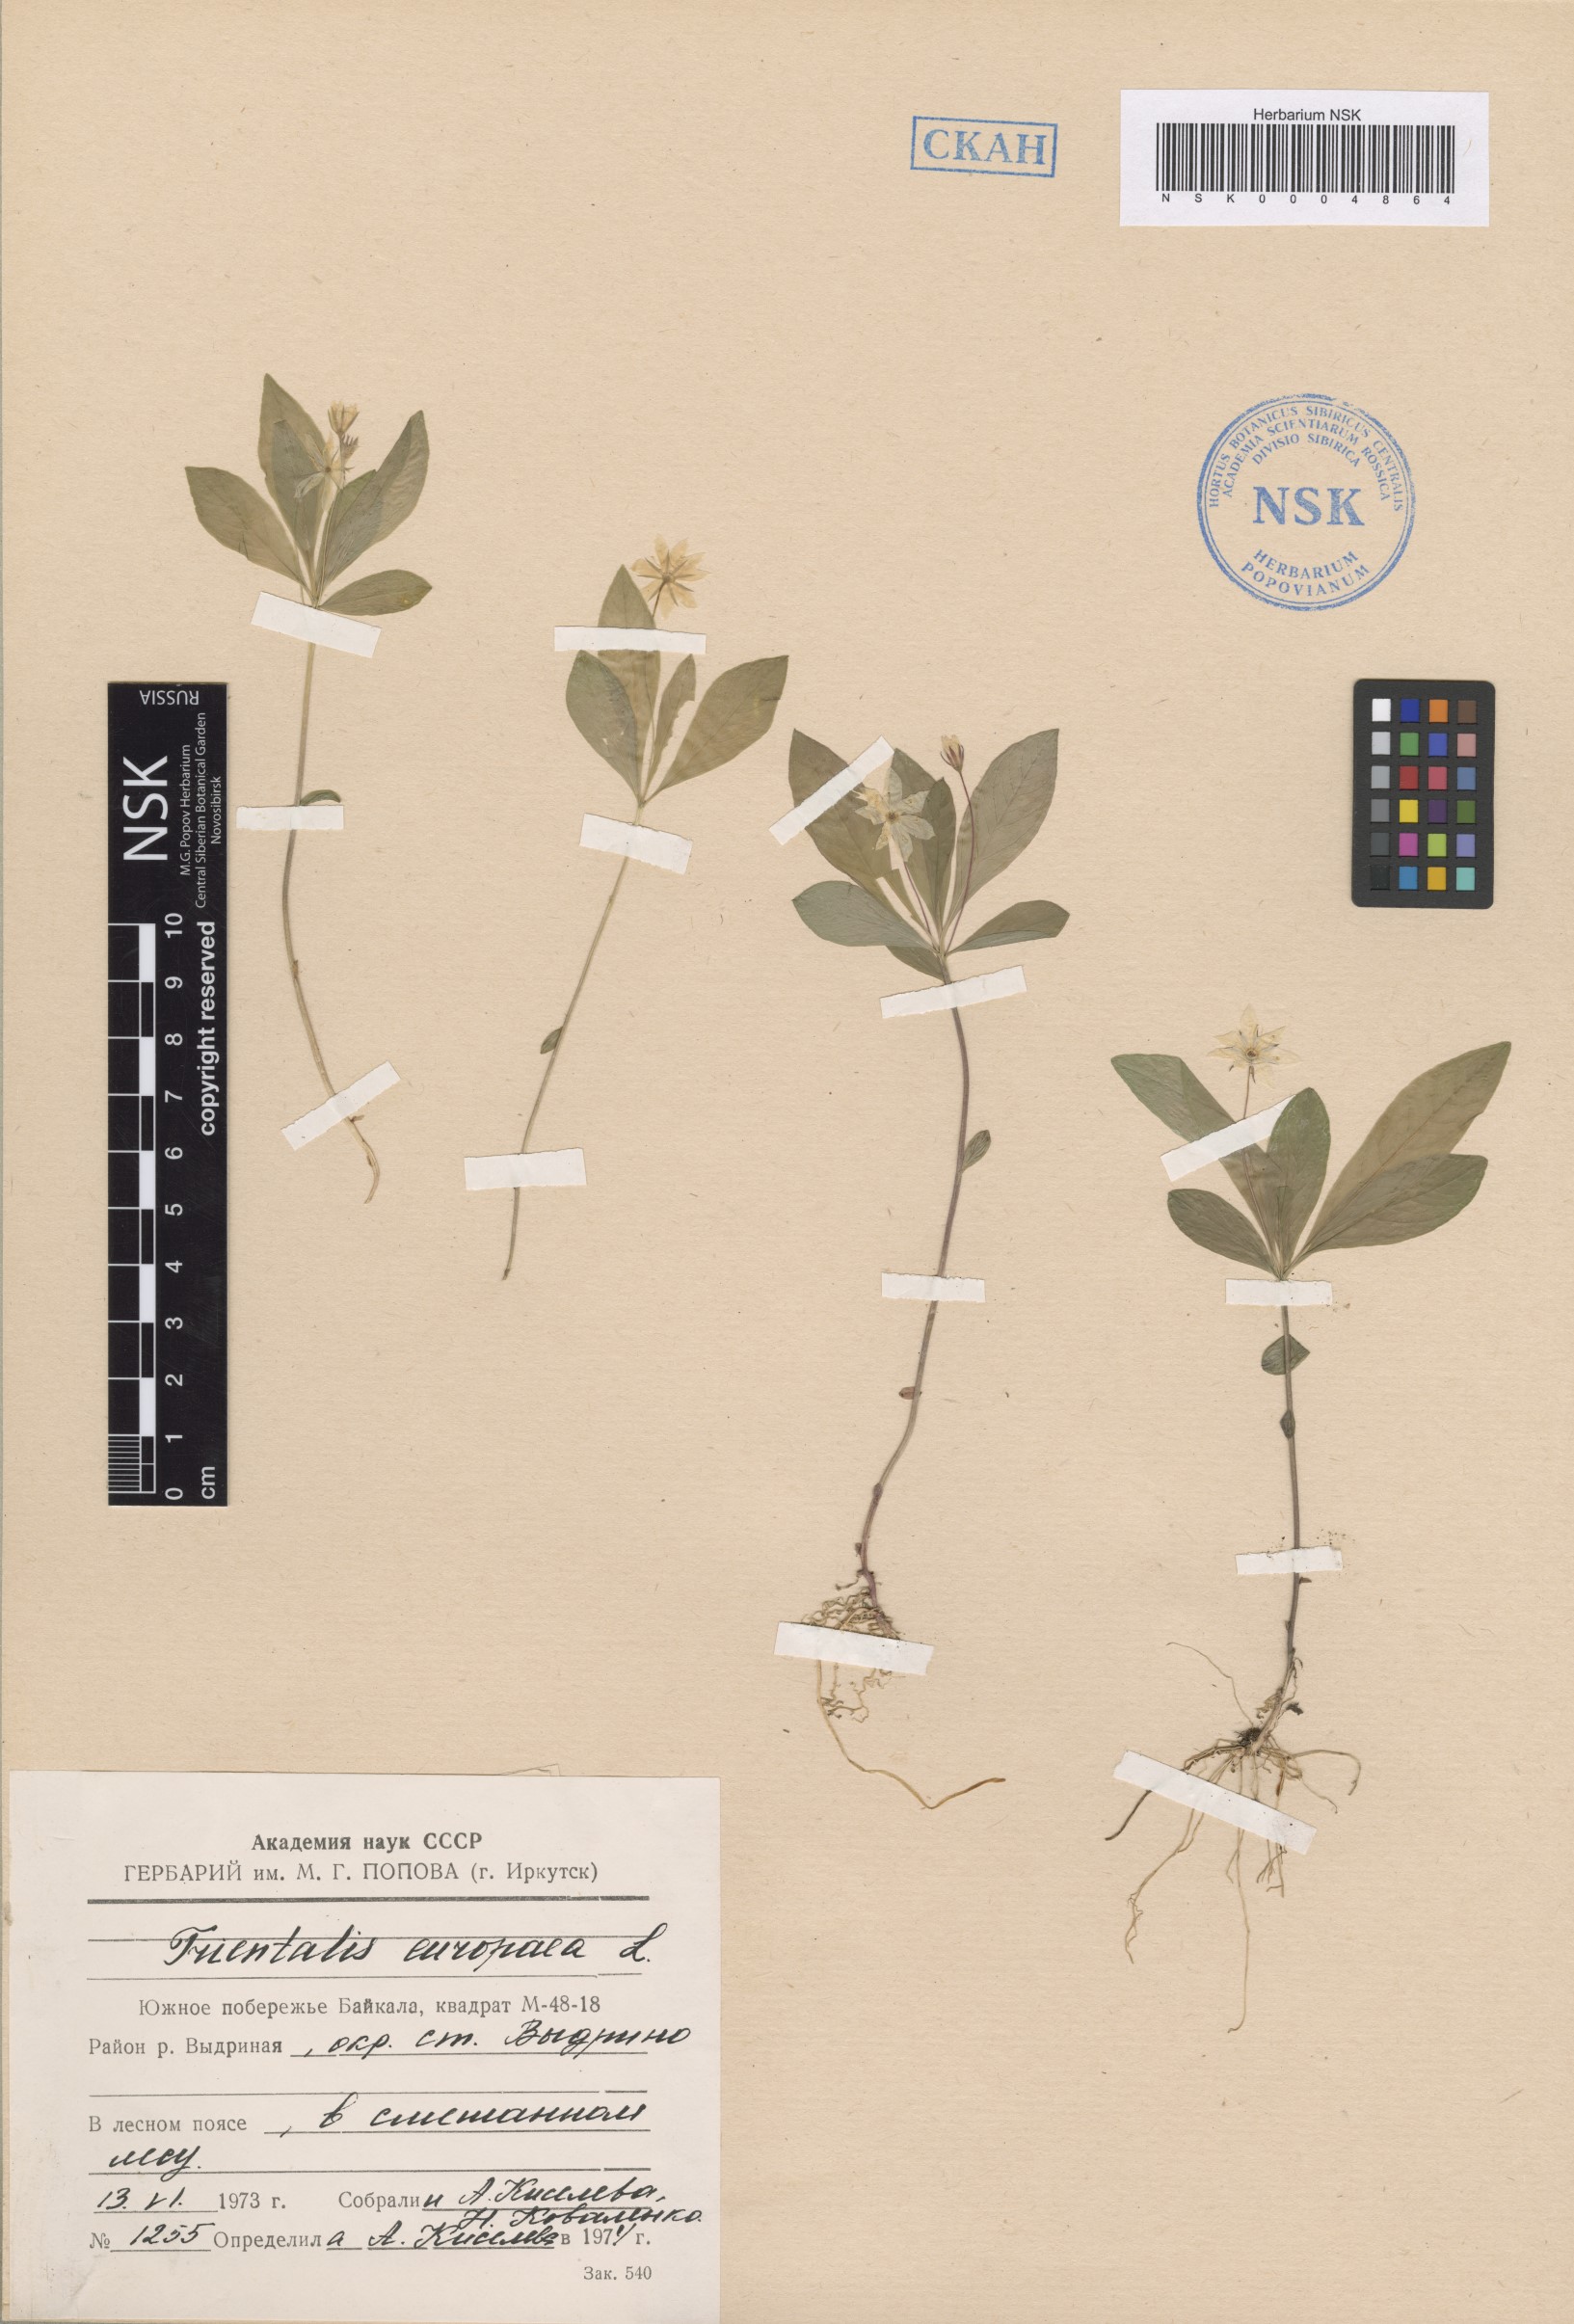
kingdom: Plantae
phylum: Tracheophyta
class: Magnoliopsida
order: Ericales
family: Primulaceae
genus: Lysimachia
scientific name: Lysimachia europaea
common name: Arctic starflower
